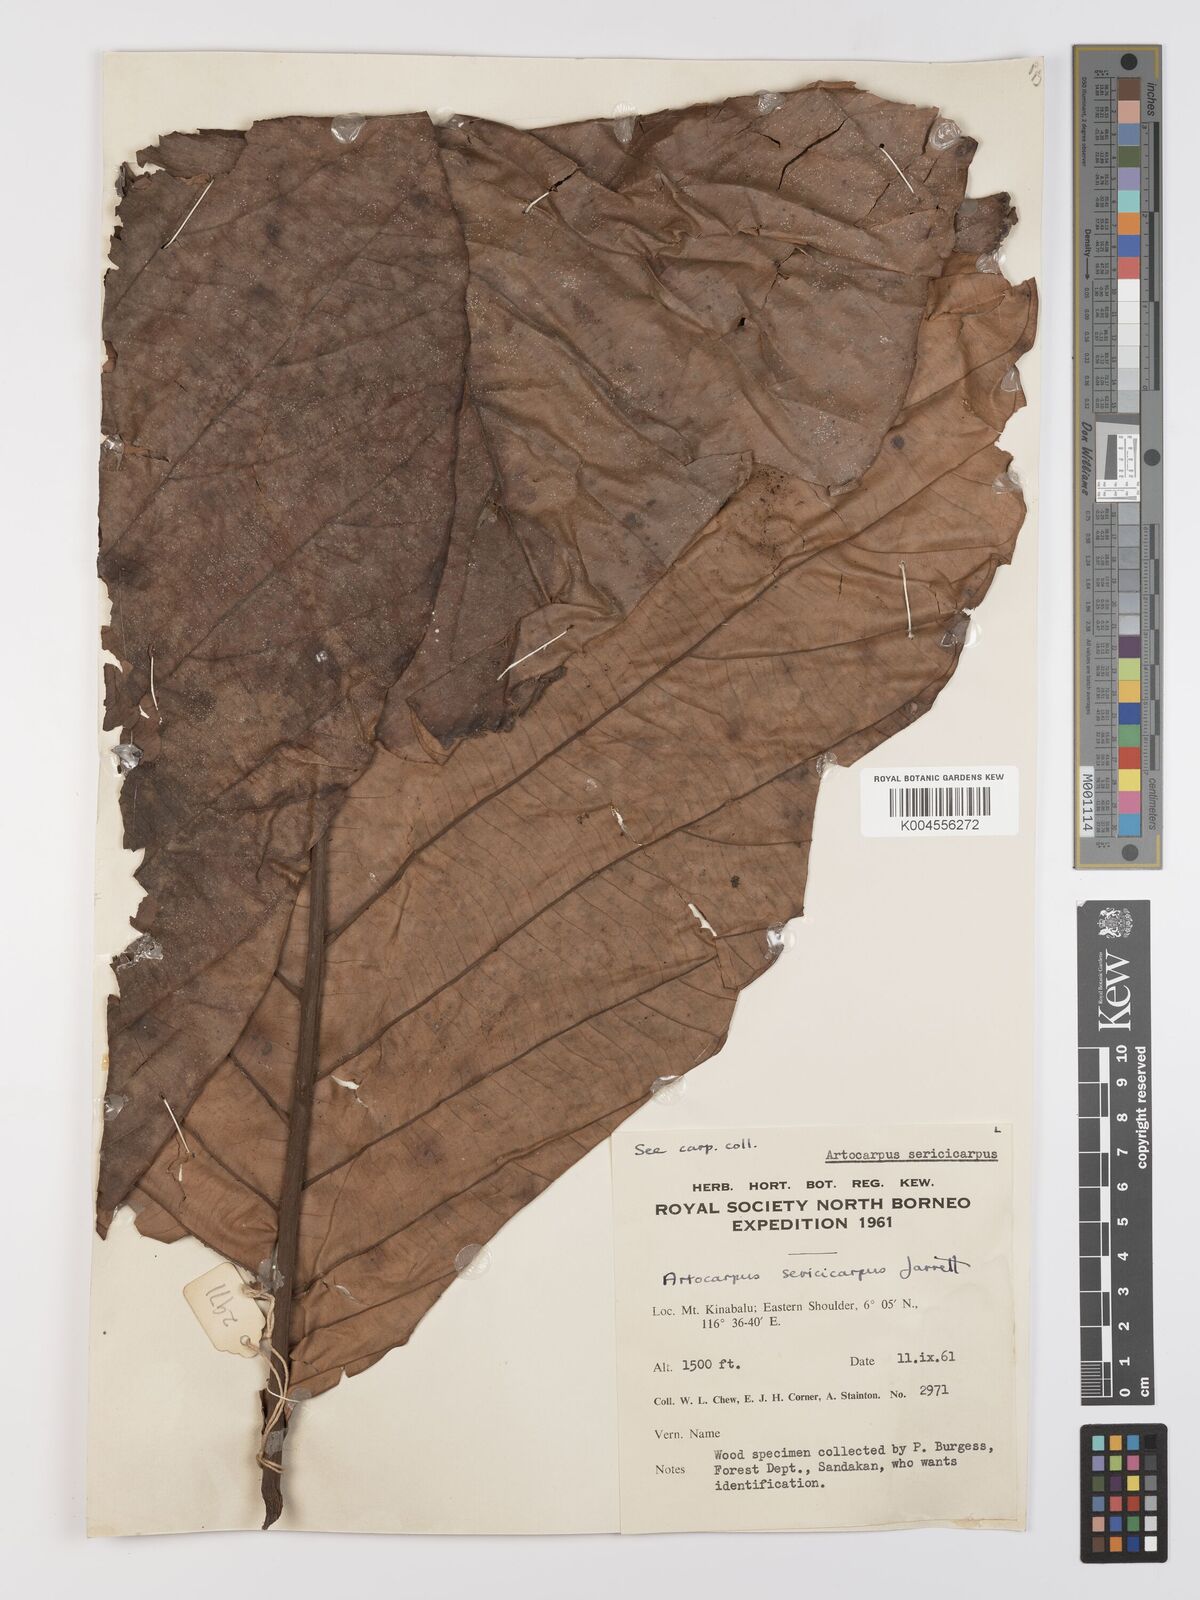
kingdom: Plantae
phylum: Tracheophyta
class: Magnoliopsida
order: Rosales
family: Moraceae
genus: Artocarpus
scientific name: Artocarpus sericicarpus
